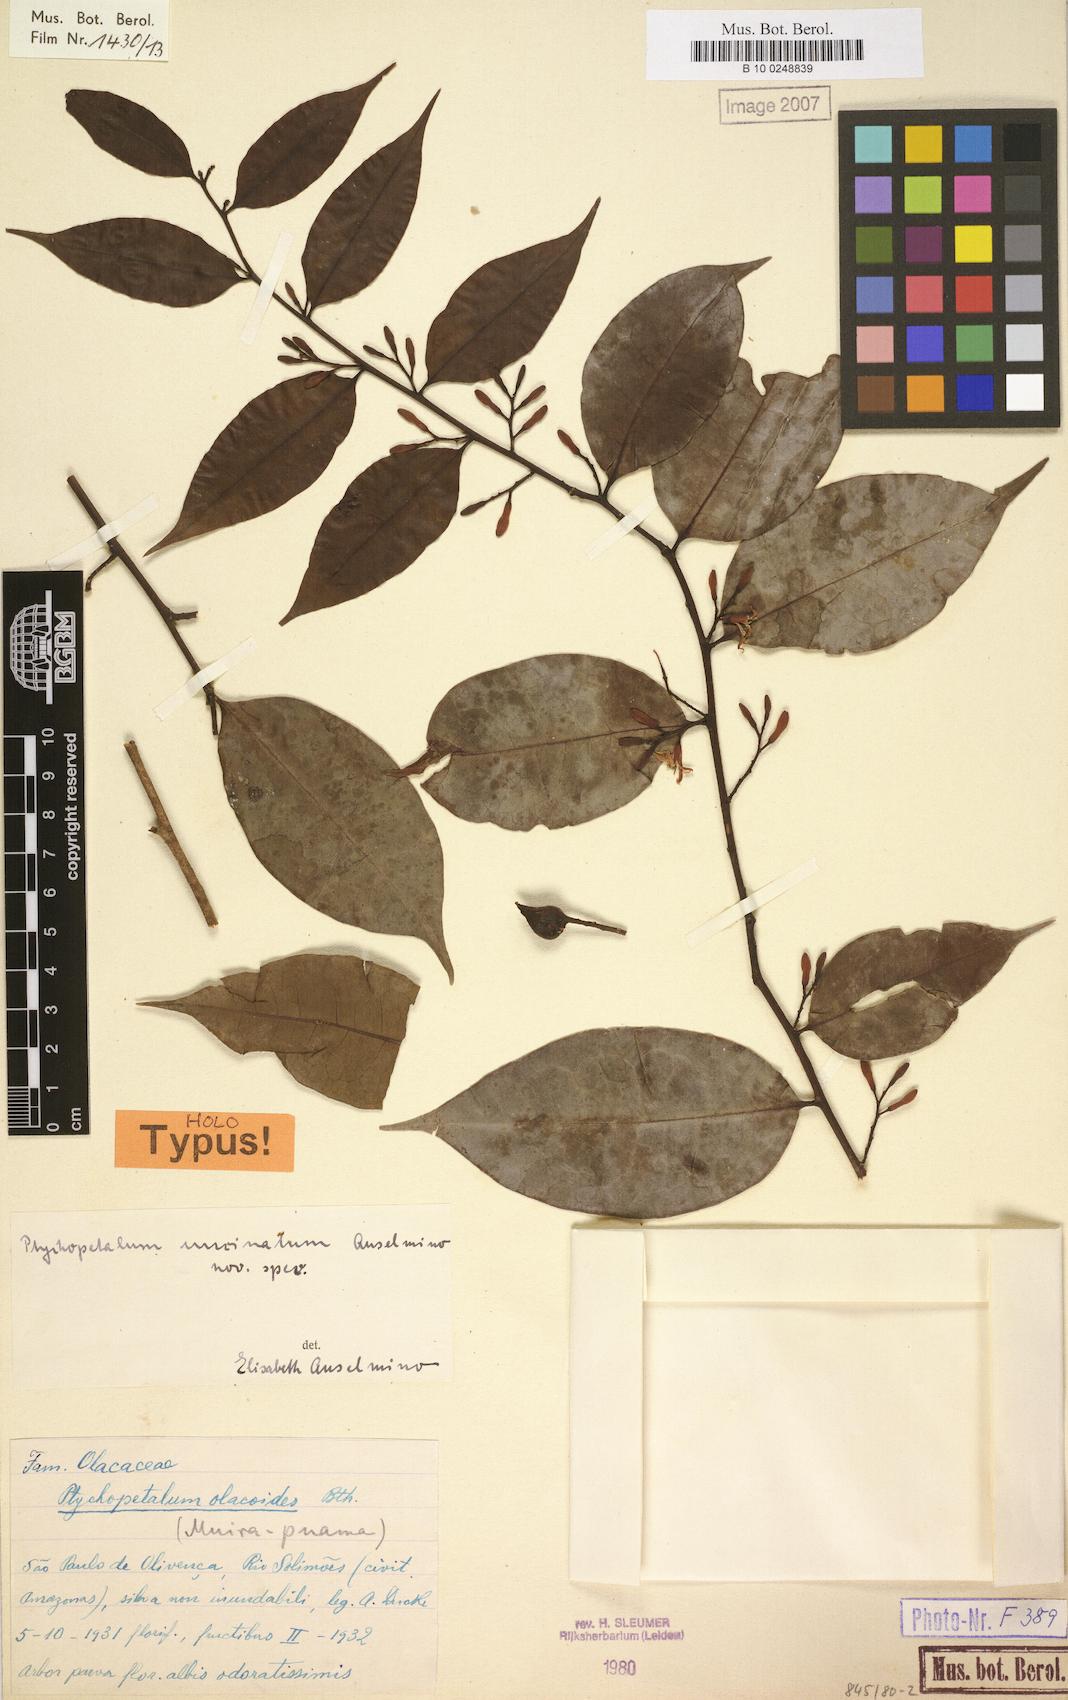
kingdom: Plantae
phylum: Tracheophyta
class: Magnoliopsida
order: Santalales
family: Olacaceae
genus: Ptychopetalum
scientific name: Ptychopetalum uncinatum
